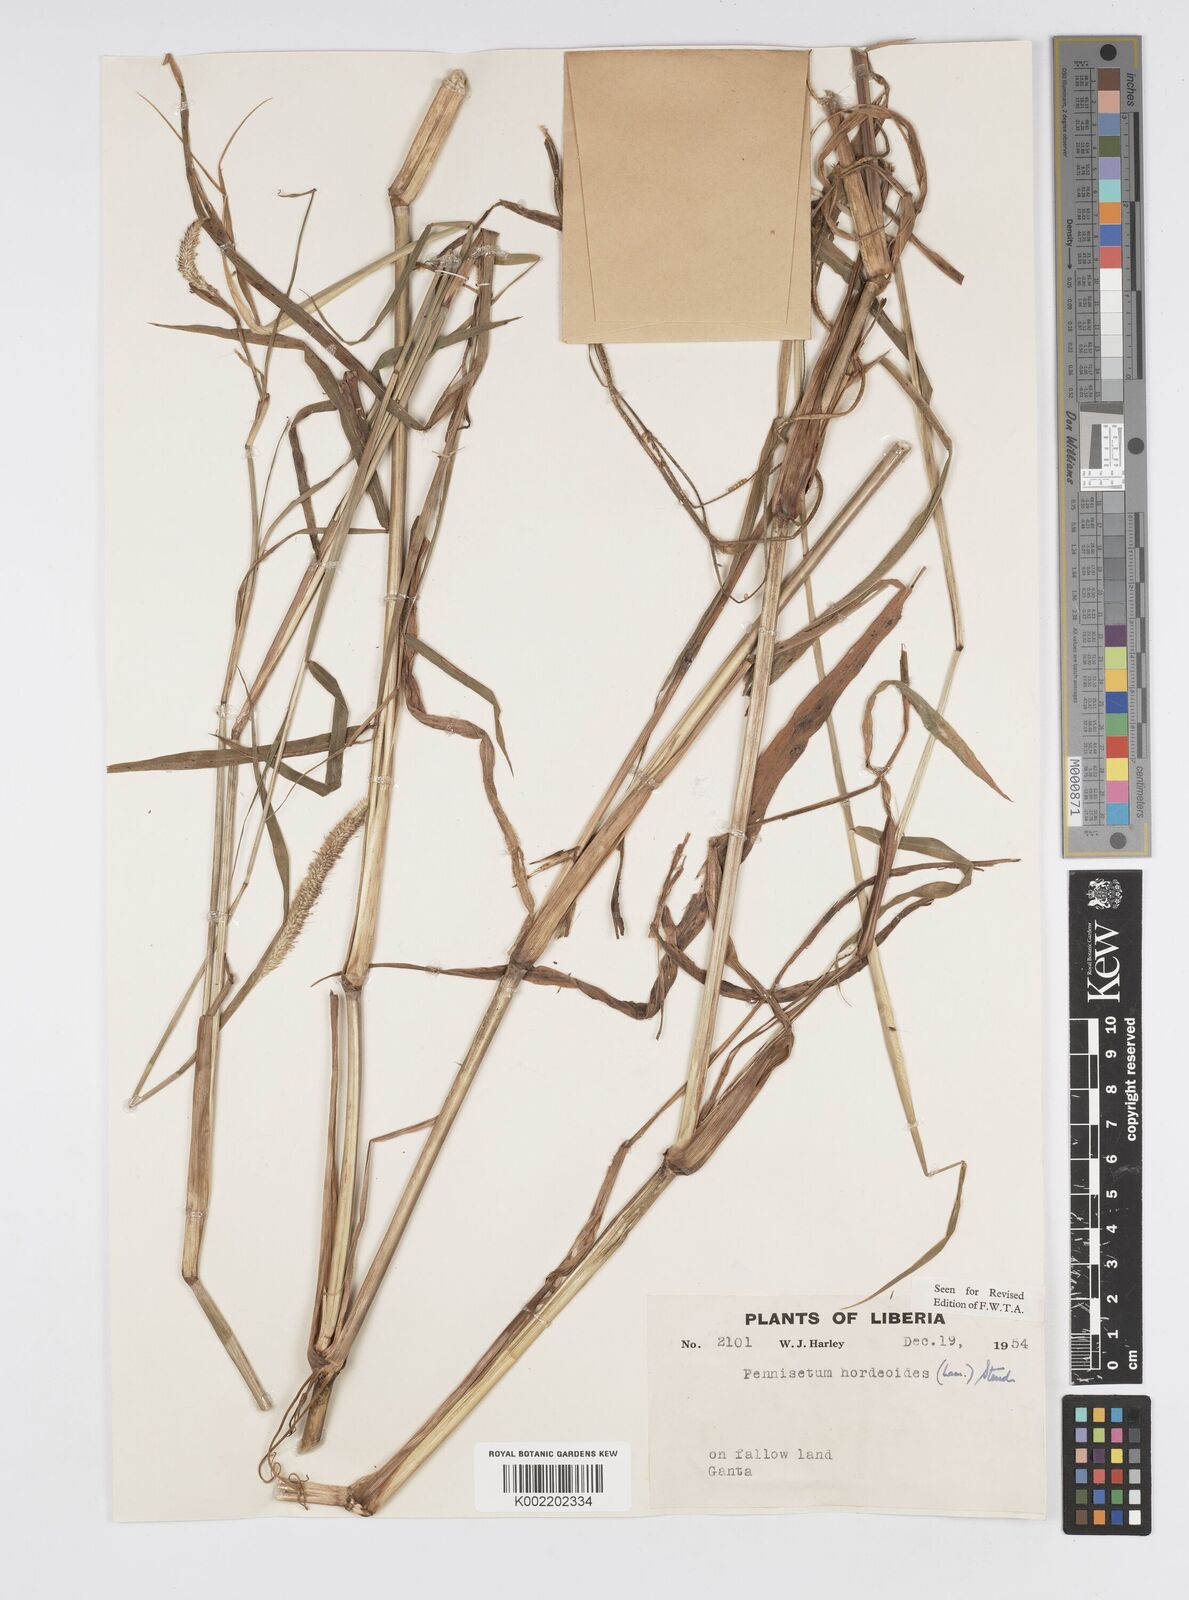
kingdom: Plantae
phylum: Tracheophyta
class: Liliopsida
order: Poales
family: Poaceae
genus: Cenchrus
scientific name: Cenchrus hordeoides
